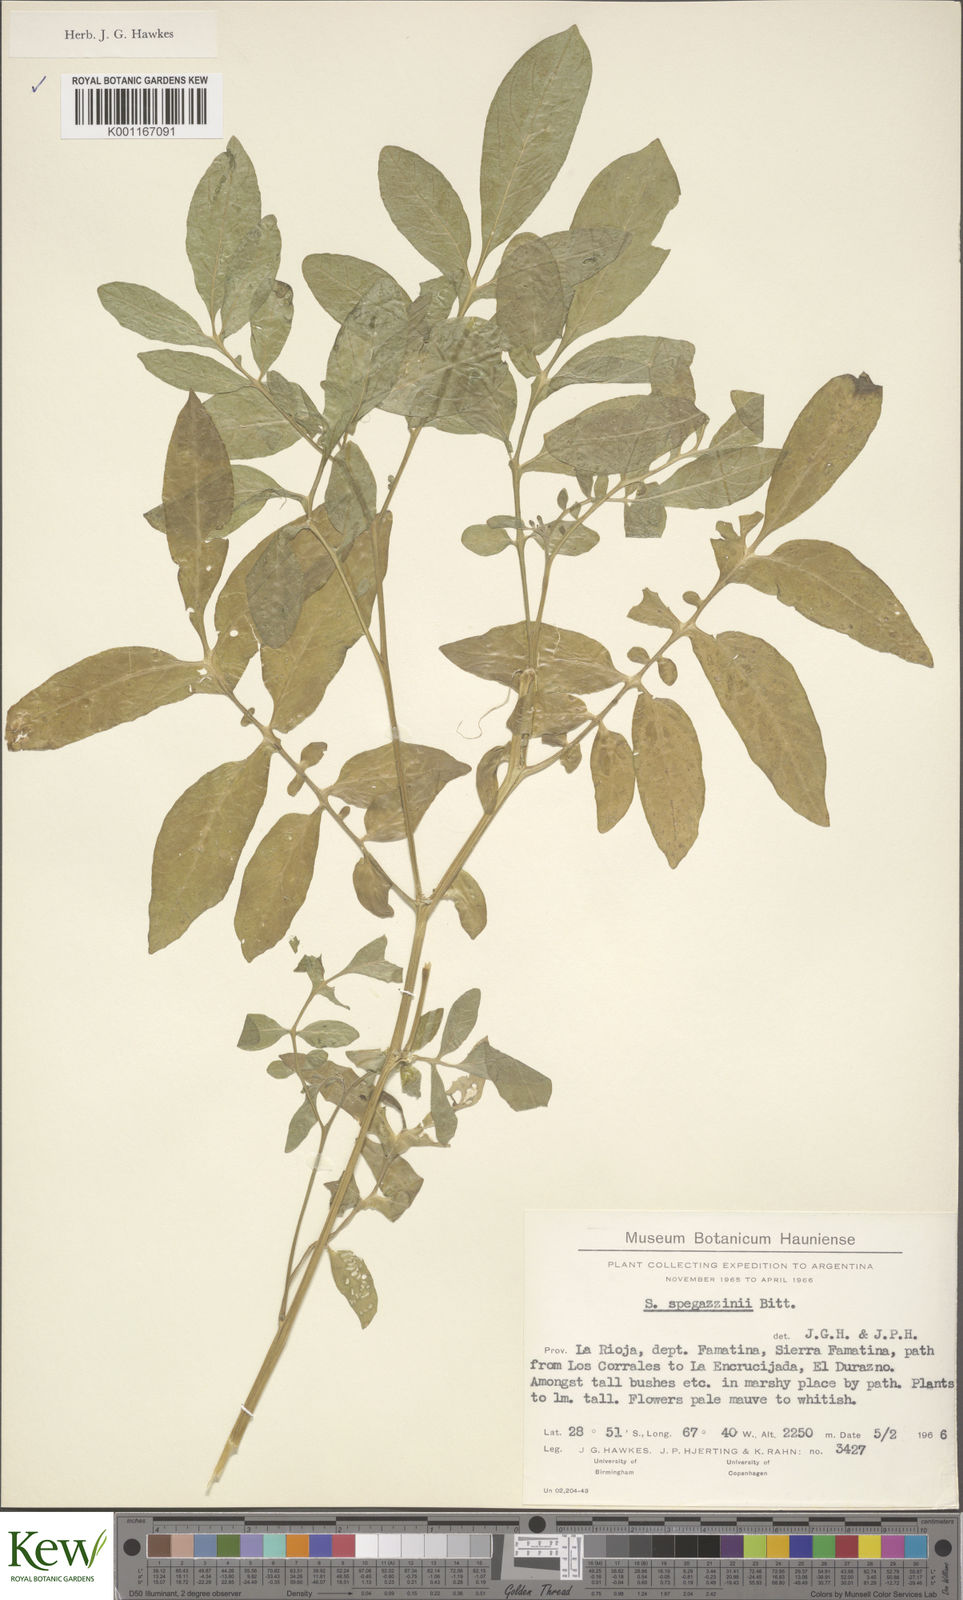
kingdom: Plantae
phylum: Tracheophyta
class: Magnoliopsida
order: Solanales
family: Solanaceae
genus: Solanum
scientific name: Solanum brevicaule
